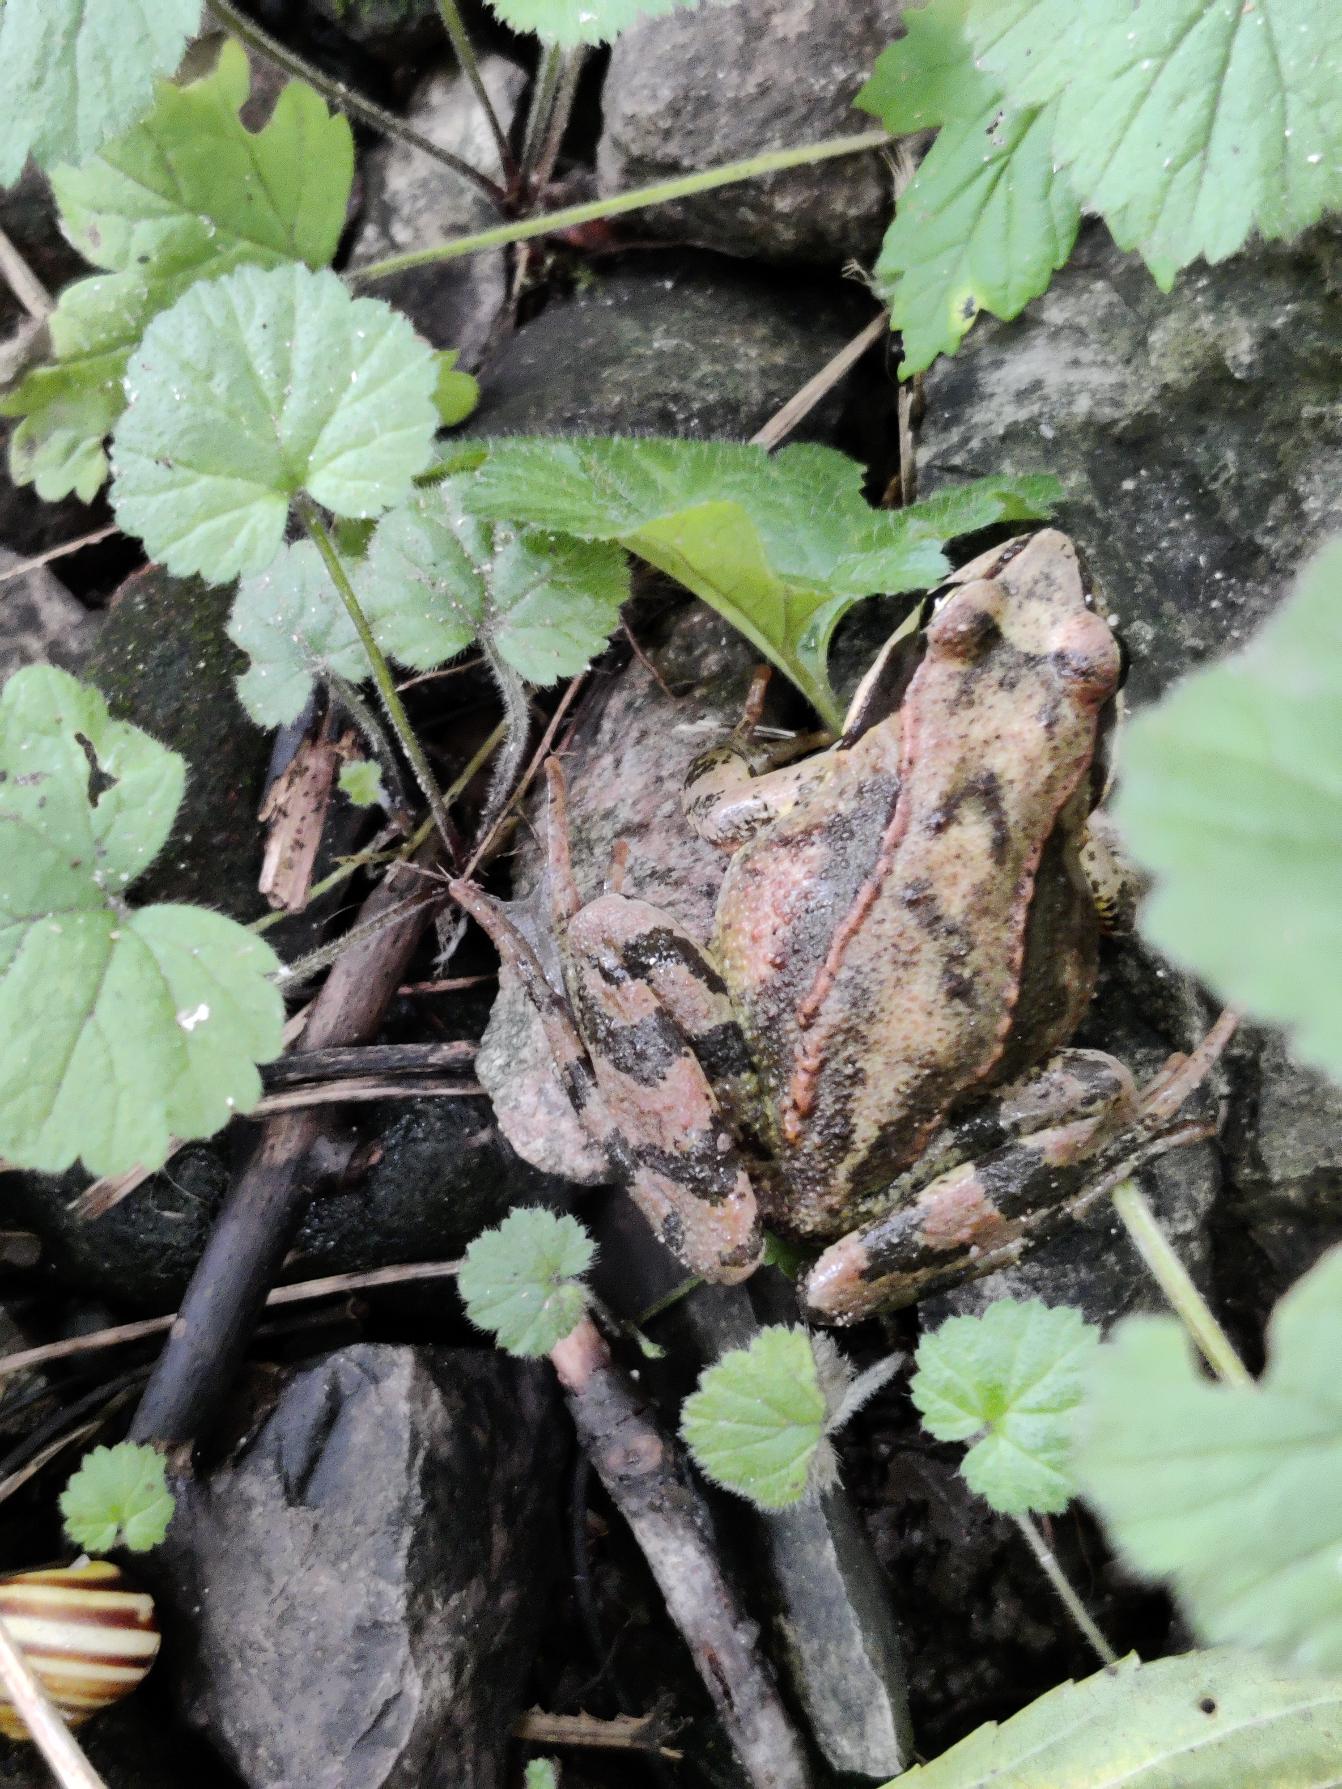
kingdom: Animalia
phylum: Chordata
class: Amphibia
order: Anura
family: Ranidae
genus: Rana
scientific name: Rana temporaria
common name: Butsnudet frø
